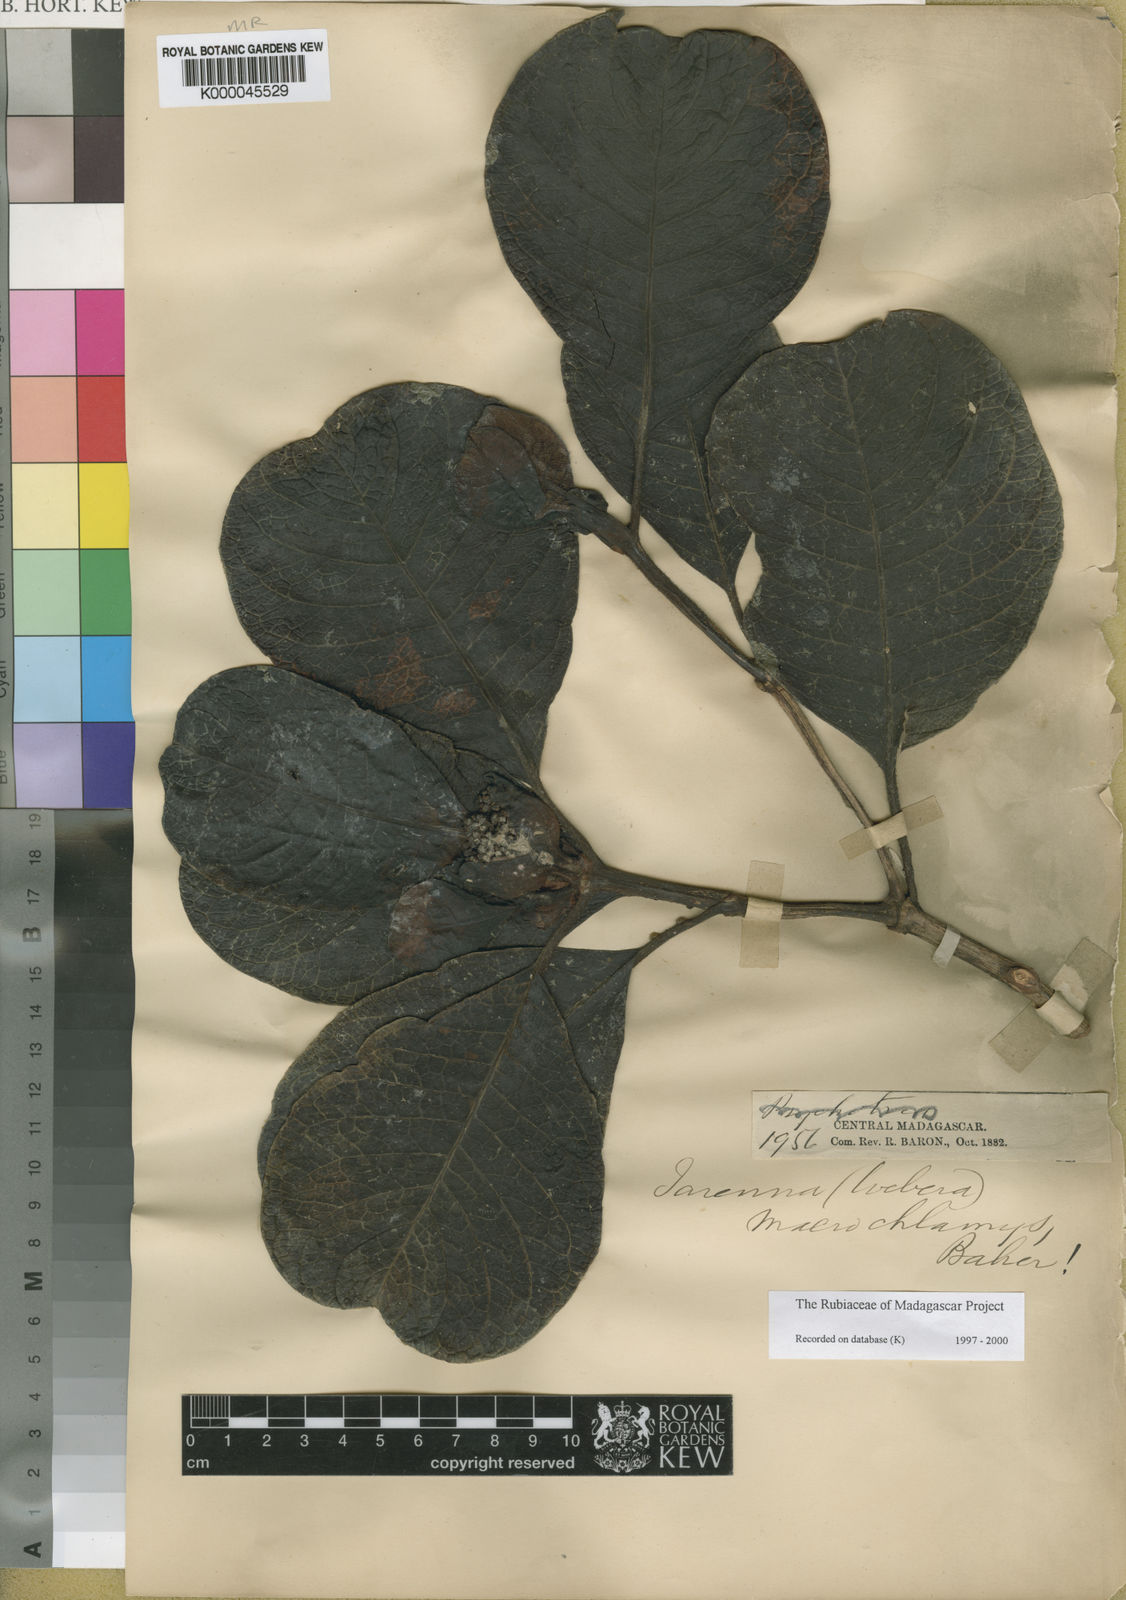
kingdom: Plantae
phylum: Tracheophyta
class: Magnoliopsida
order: Gentianales
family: Rubiaceae
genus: Psychotria
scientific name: Psychotria macrochlamys
